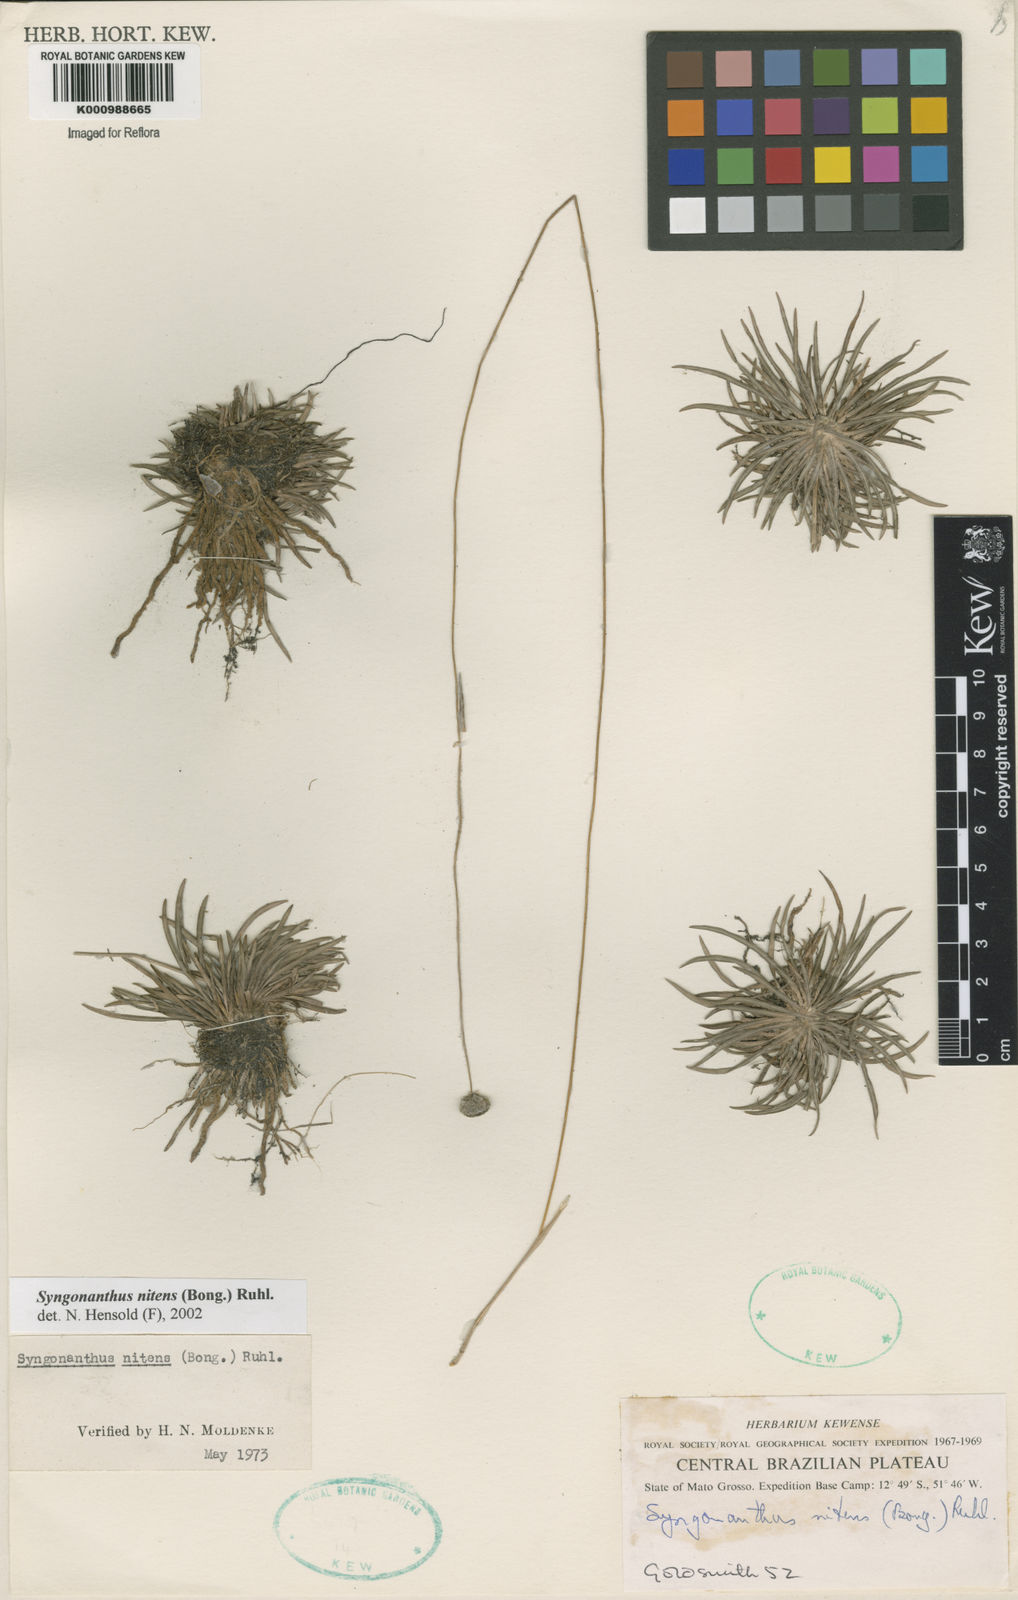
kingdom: Plantae
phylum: Tracheophyta
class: Liliopsida
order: Poales
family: Eriocaulaceae
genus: Syngonanthus
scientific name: Syngonanthus nitens
